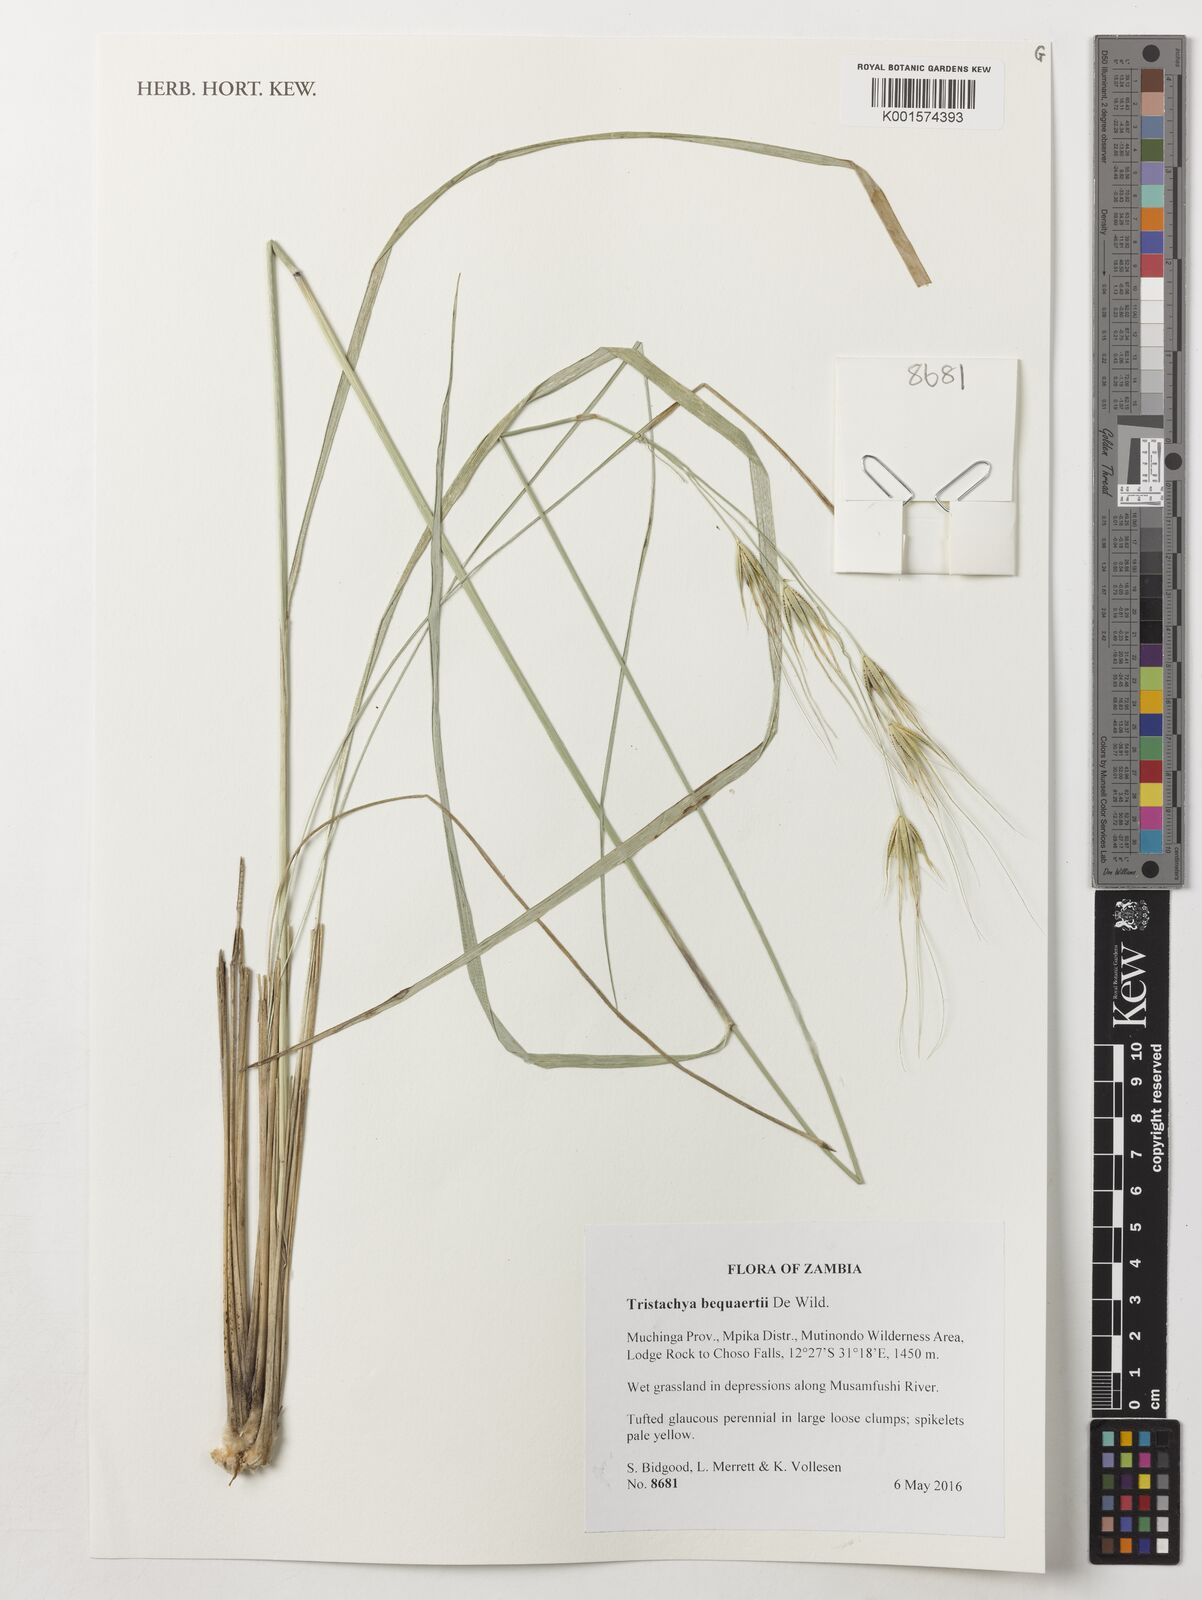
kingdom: Plantae
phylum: Tracheophyta
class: Liliopsida
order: Poales
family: Poaceae
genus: Tristachya
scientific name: Tristachya bequaertii
